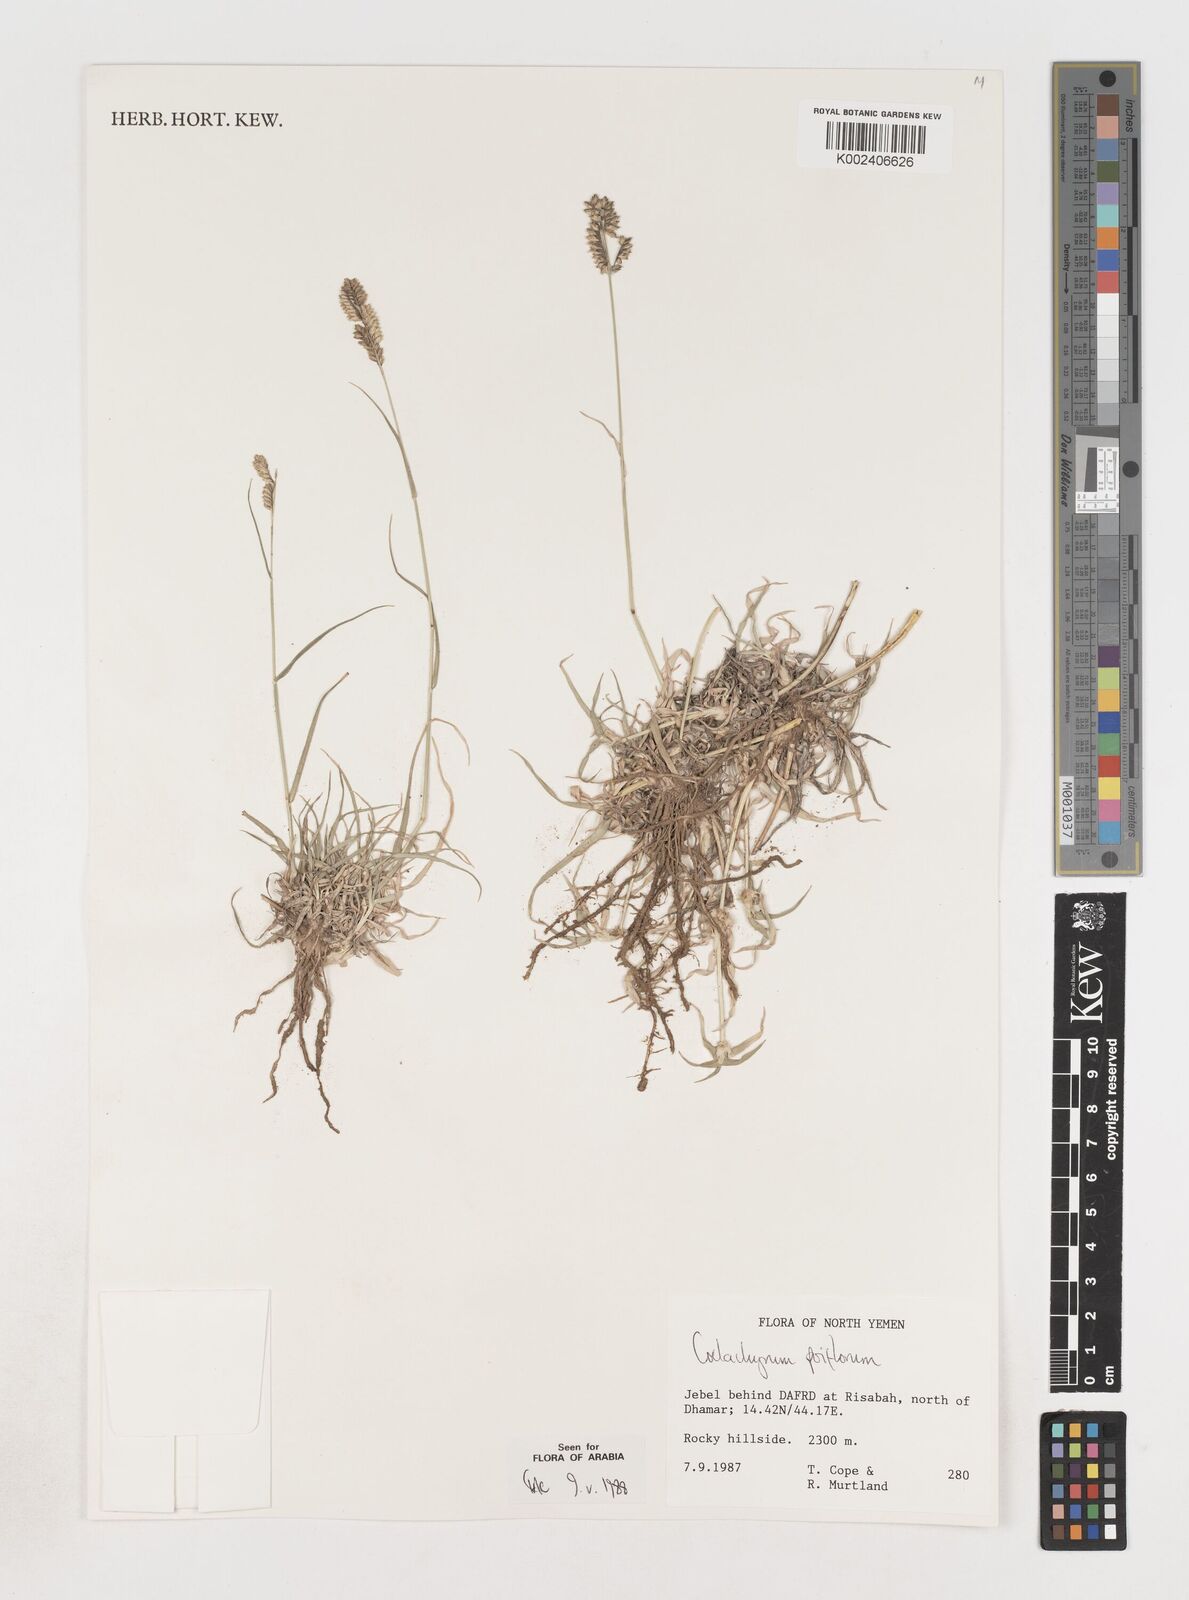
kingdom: Plantae
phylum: Tracheophyta
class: Liliopsida
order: Poales
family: Poaceae
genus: Coelachyrum
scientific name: Coelachyrum poiflorum
